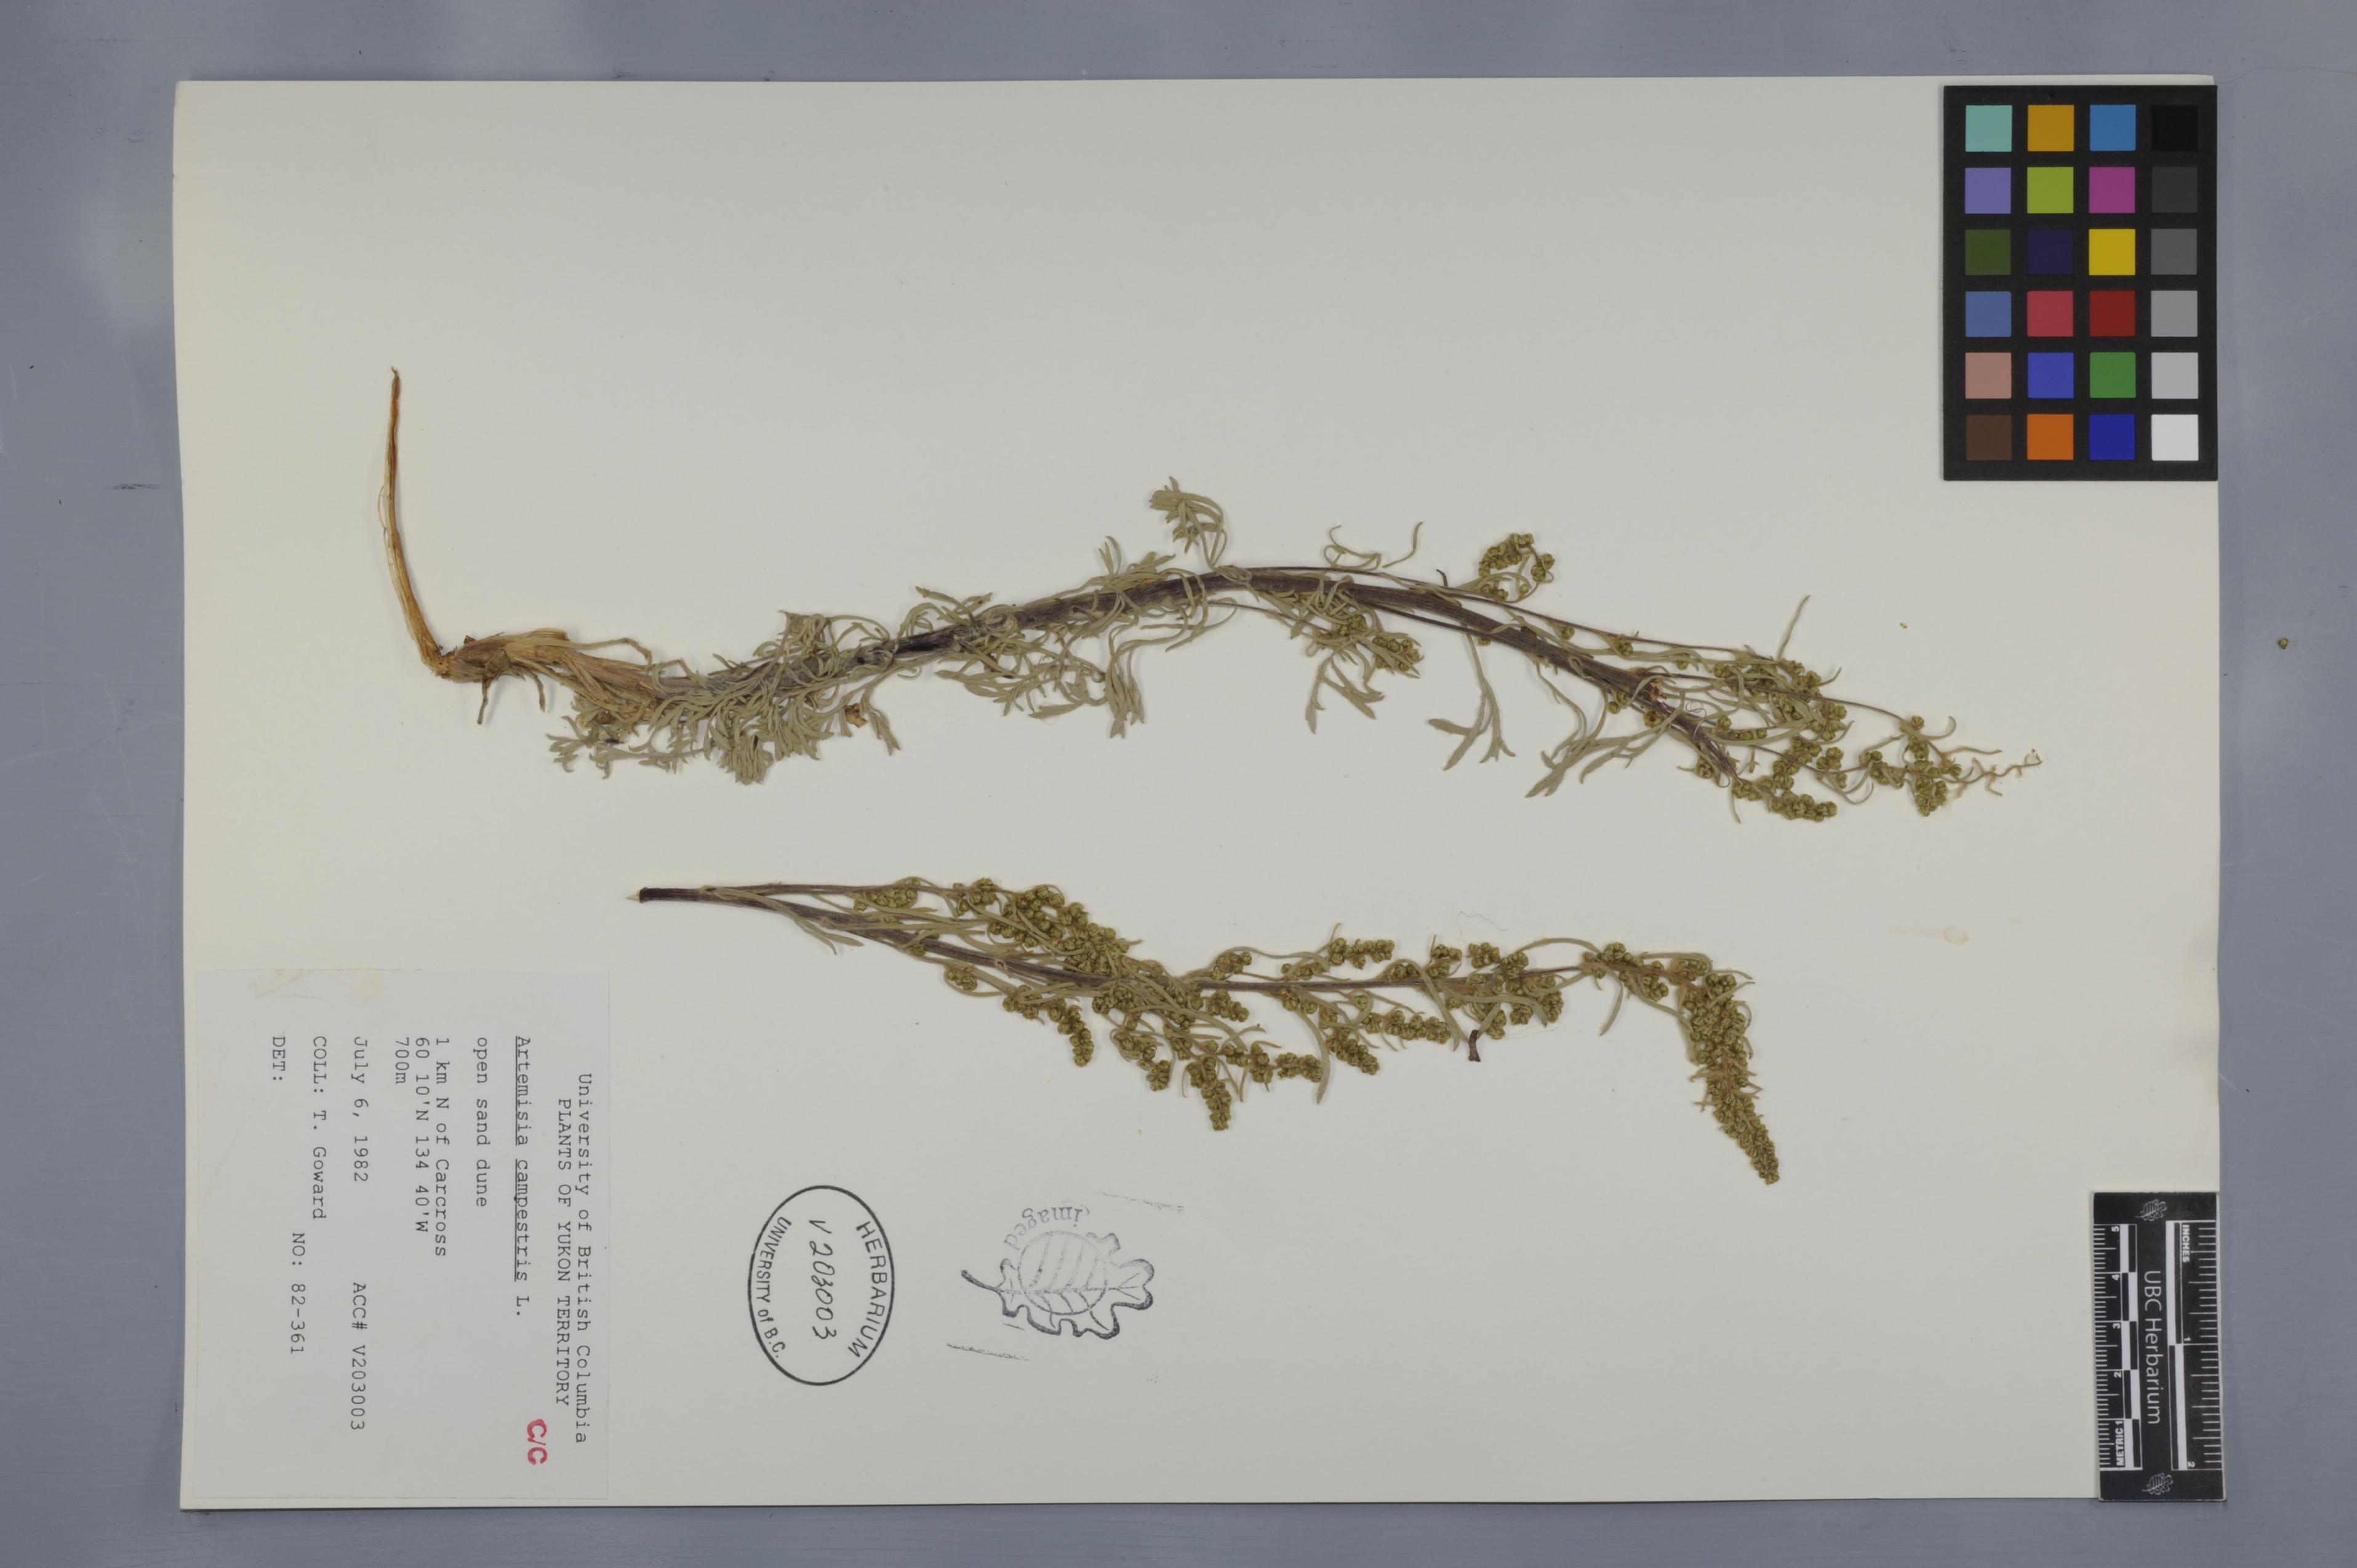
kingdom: Plantae
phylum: Tracheophyta
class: Magnoliopsida
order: Asterales
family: Asteraceae
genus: Artemisia
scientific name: Artemisia campestris
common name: Field wormwood
